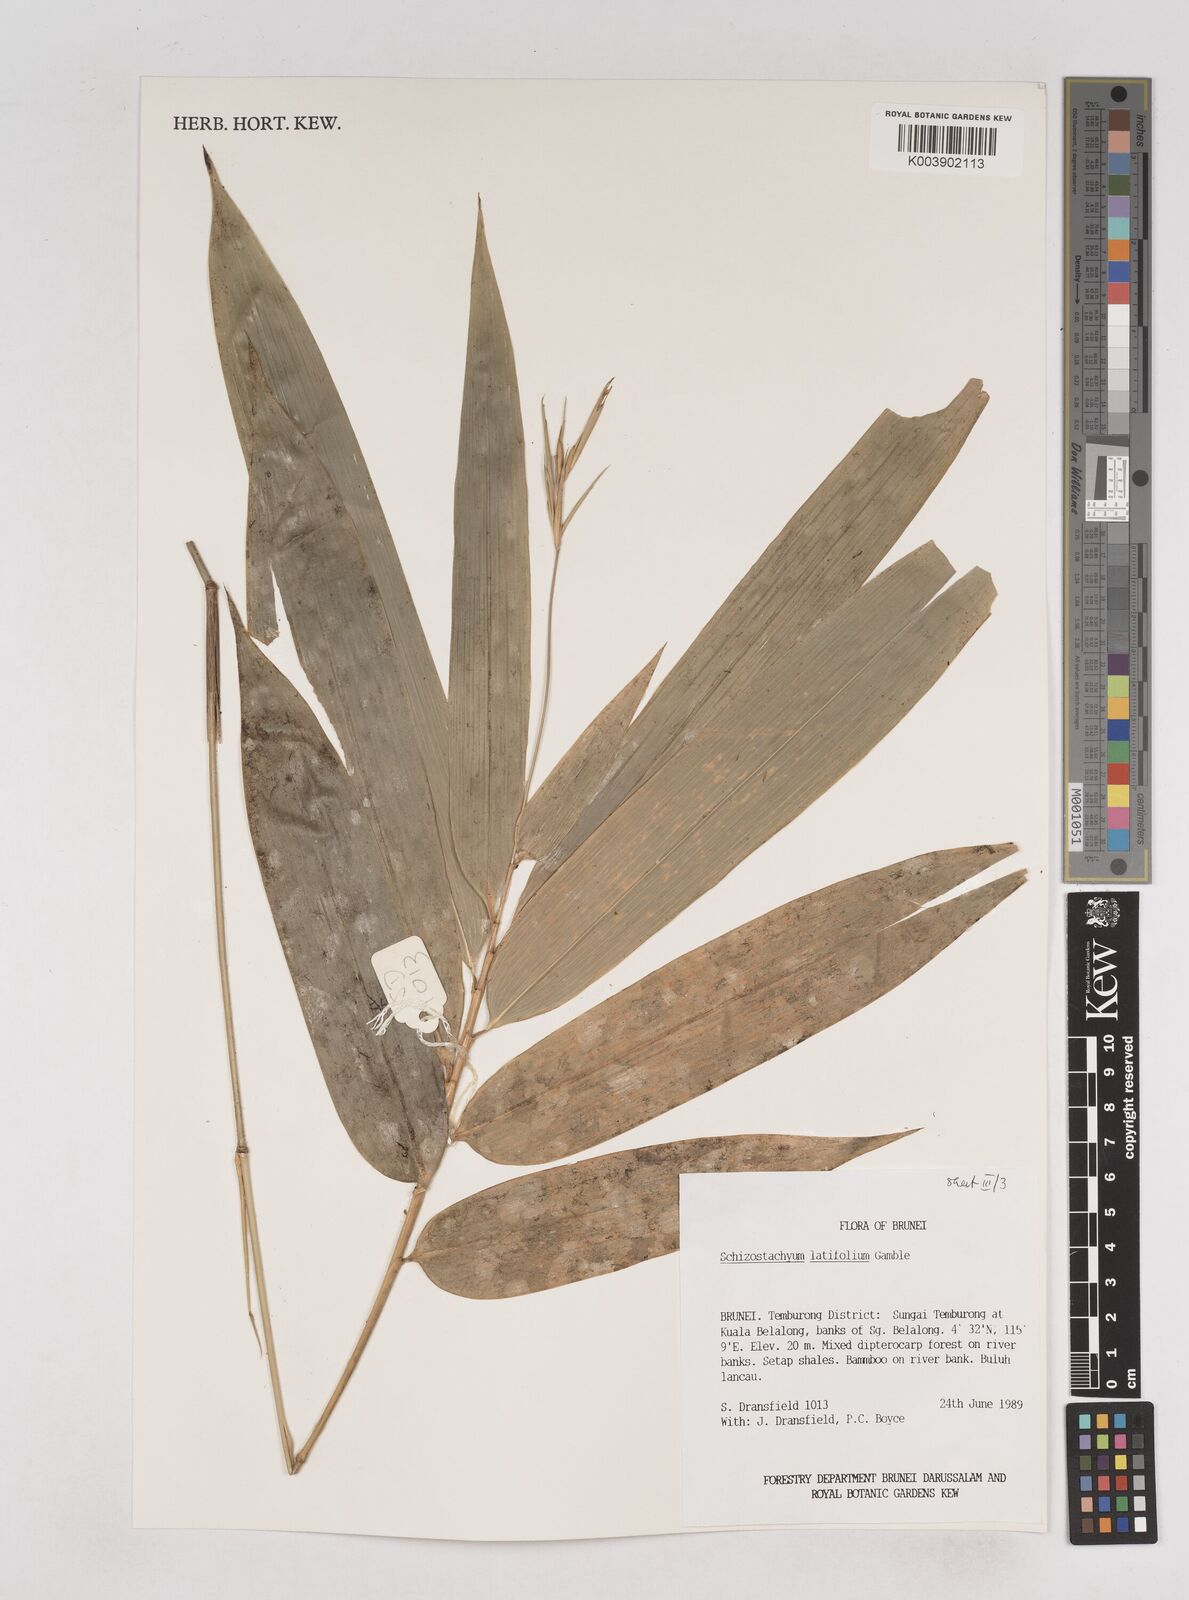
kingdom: Plantae
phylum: Tracheophyta
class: Liliopsida
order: Poales
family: Poaceae
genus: Schizostachyum
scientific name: Schizostachyum
